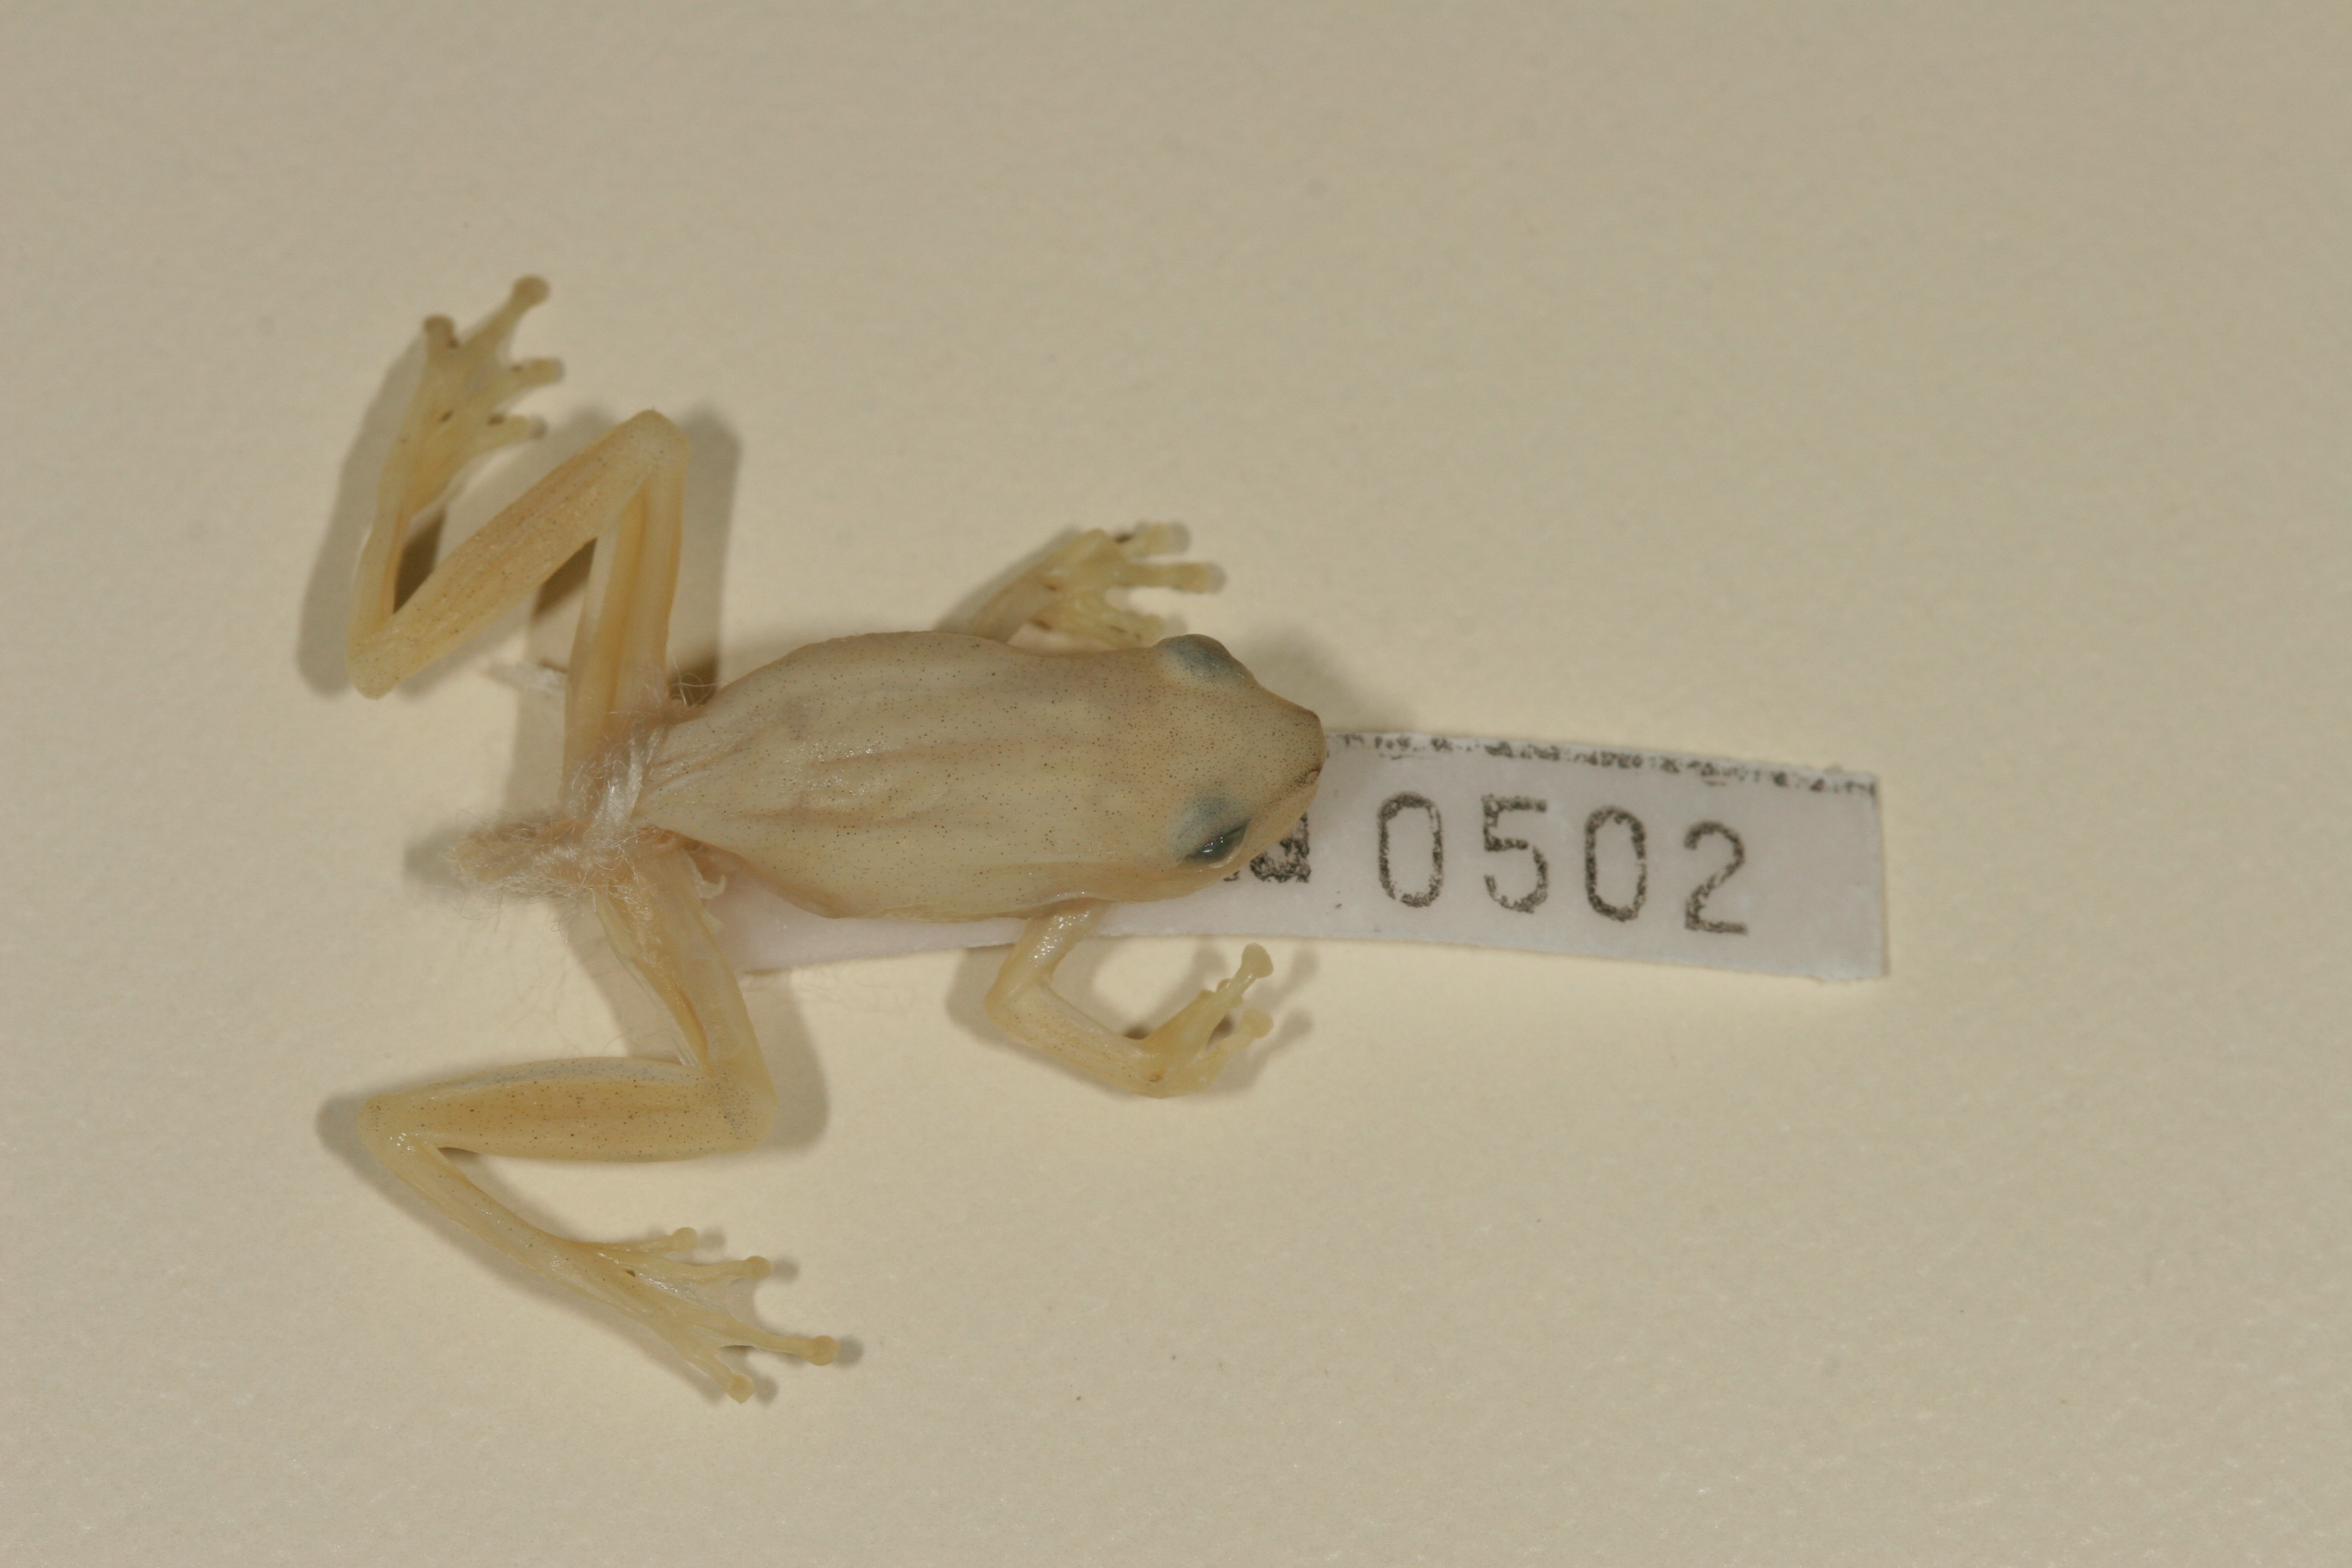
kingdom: Animalia
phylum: Chordata
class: Amphibia
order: Anura
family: Hyperoliidae
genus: Hyperolius
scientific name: Hyperolius pusillus
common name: Water lily reed frog
